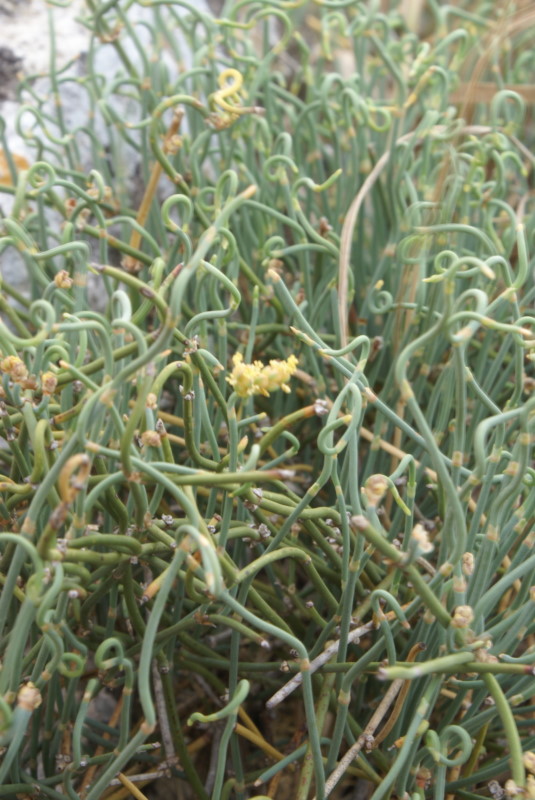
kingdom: Plantae
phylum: Tracheophyta
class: Gnetopsida
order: Ephedrales
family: Ephedraceae
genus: Ephedra
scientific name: Ephedra distachya
